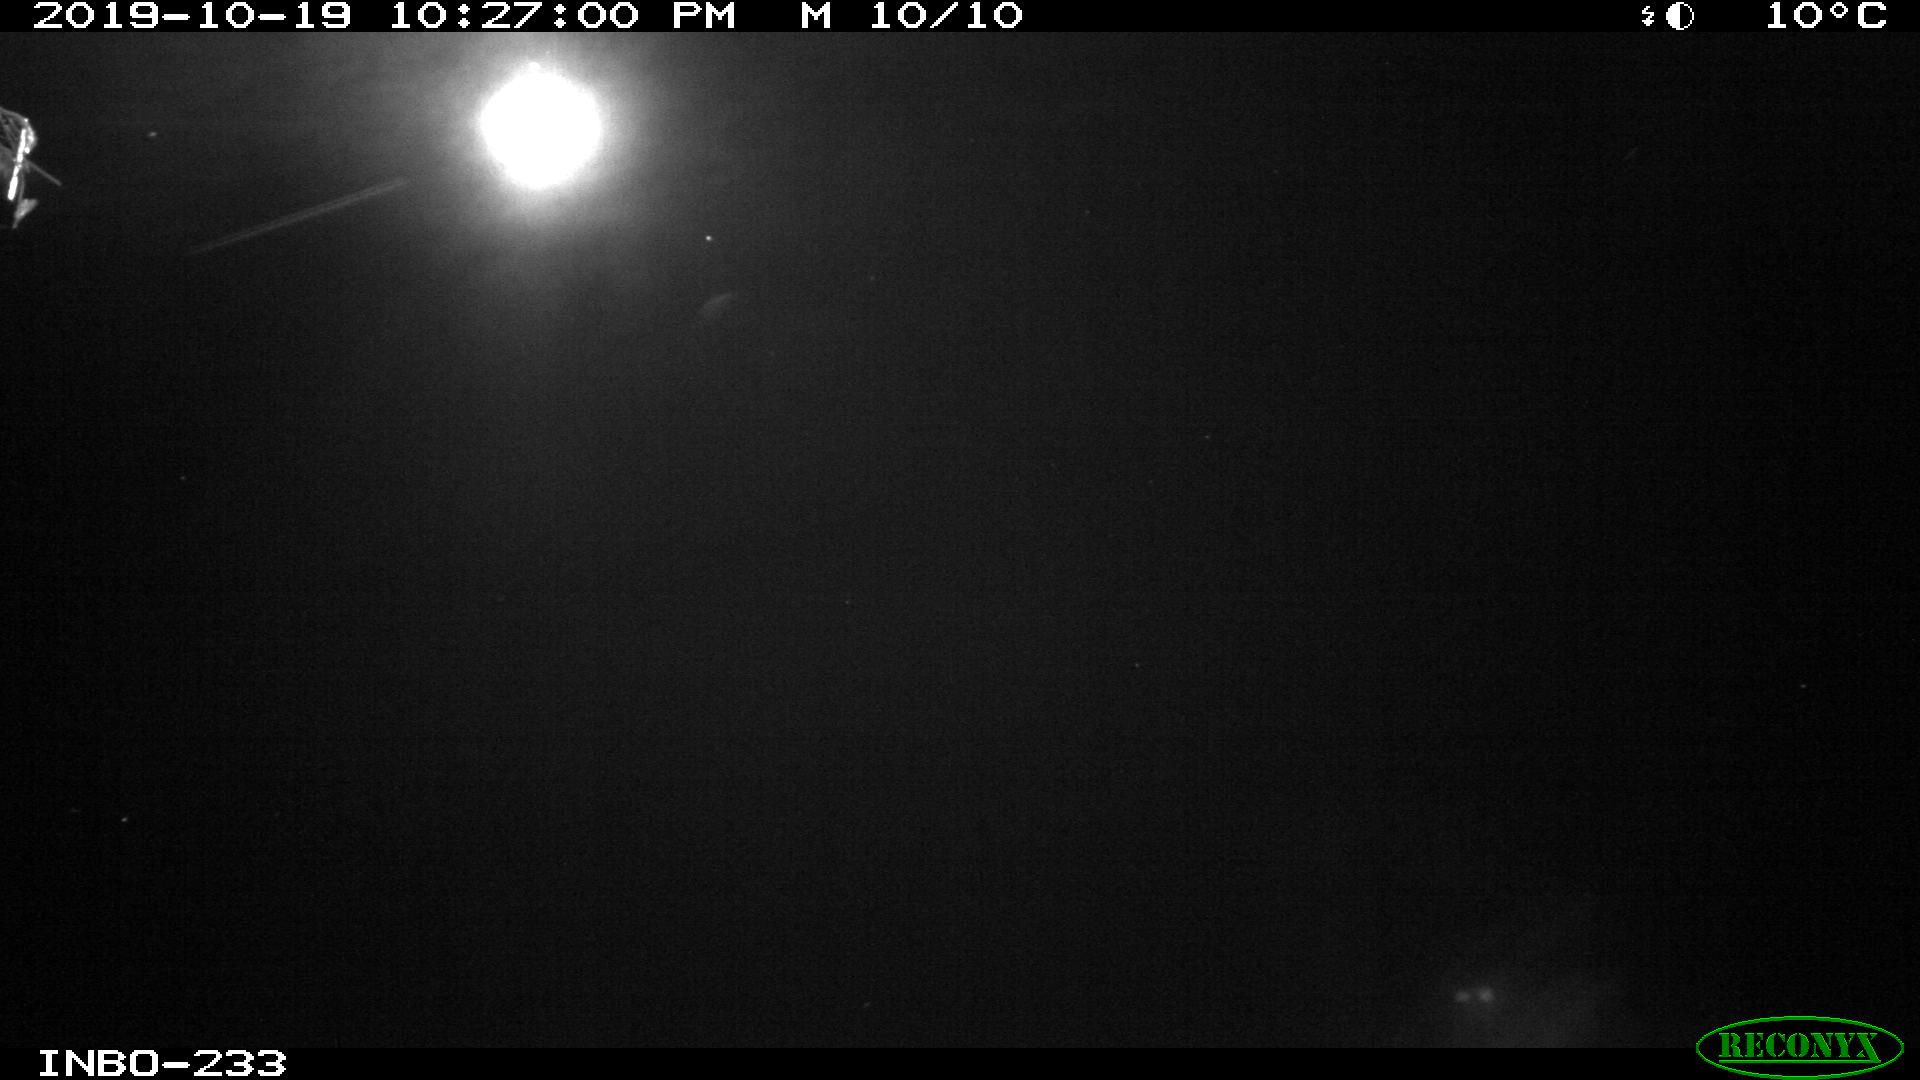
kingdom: Animalia
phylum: Chordata
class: Aves
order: Anseriformes
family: Anatidae
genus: Anas
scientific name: Anas platyrhynchos
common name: Mallard
